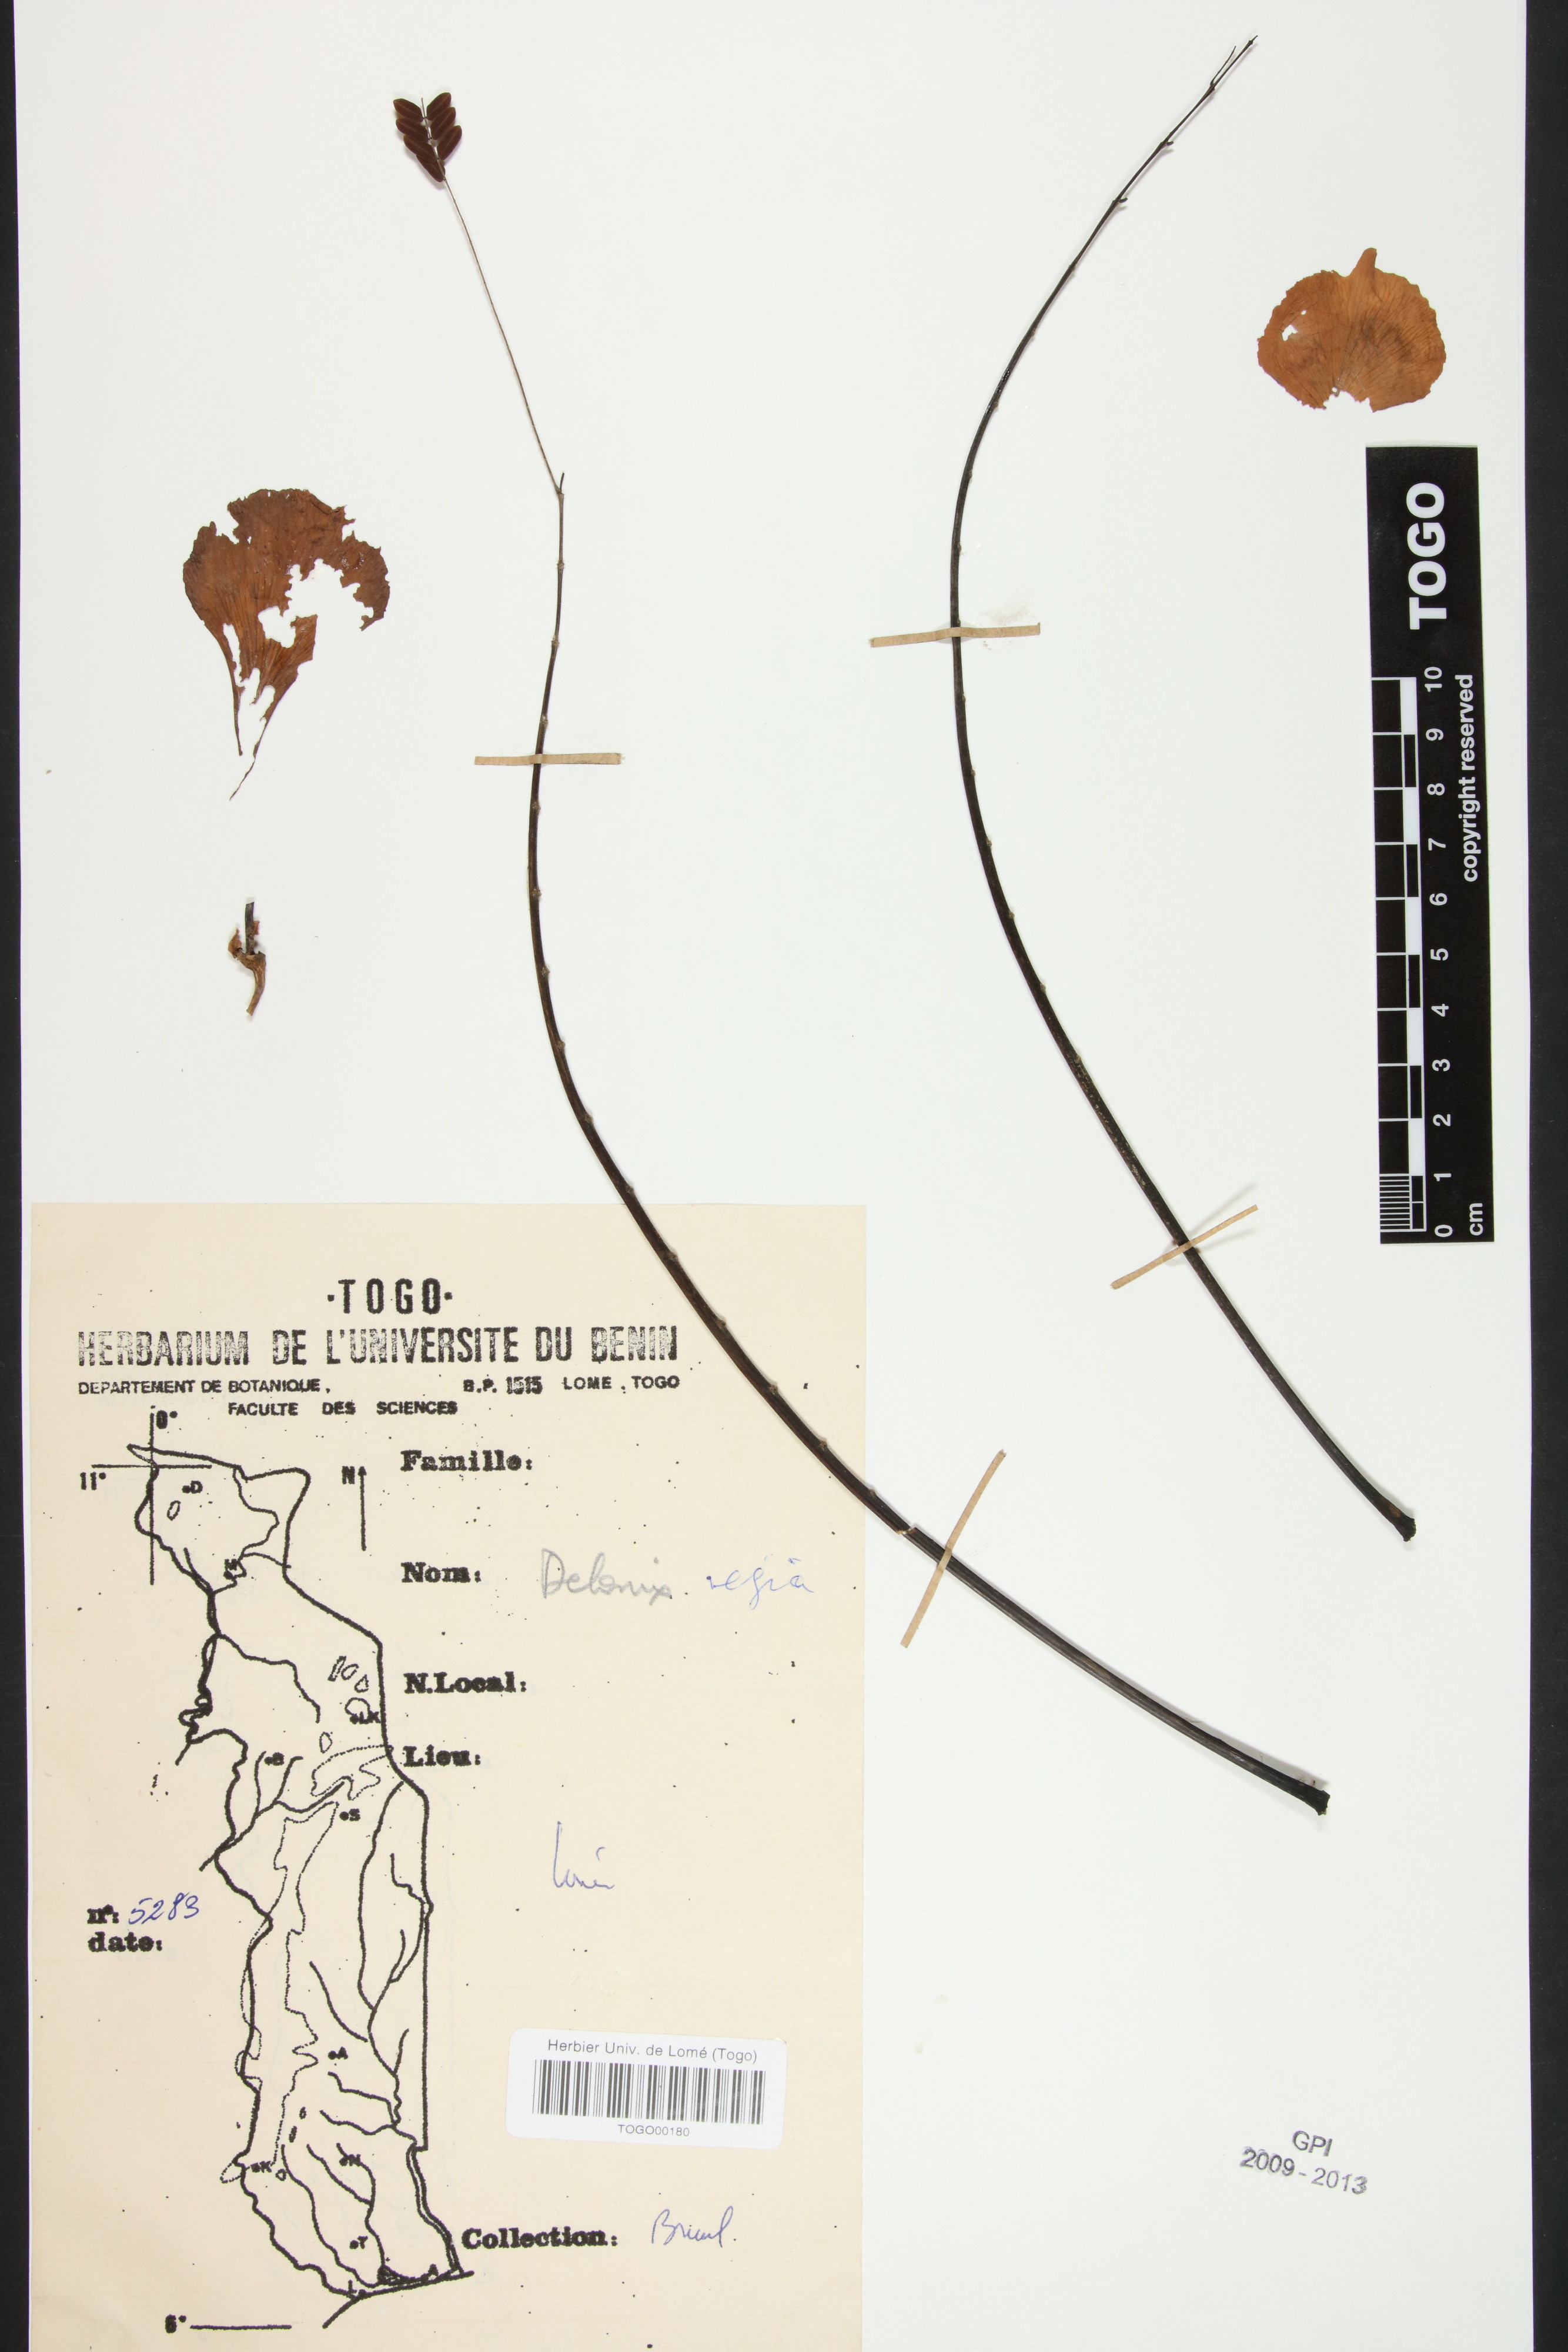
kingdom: Plantae
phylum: Tracheophyta
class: Magnoliopsida
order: Fabales
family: Fabaceae
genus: Delonix
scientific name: Delonix regia
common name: Royal poinciana
